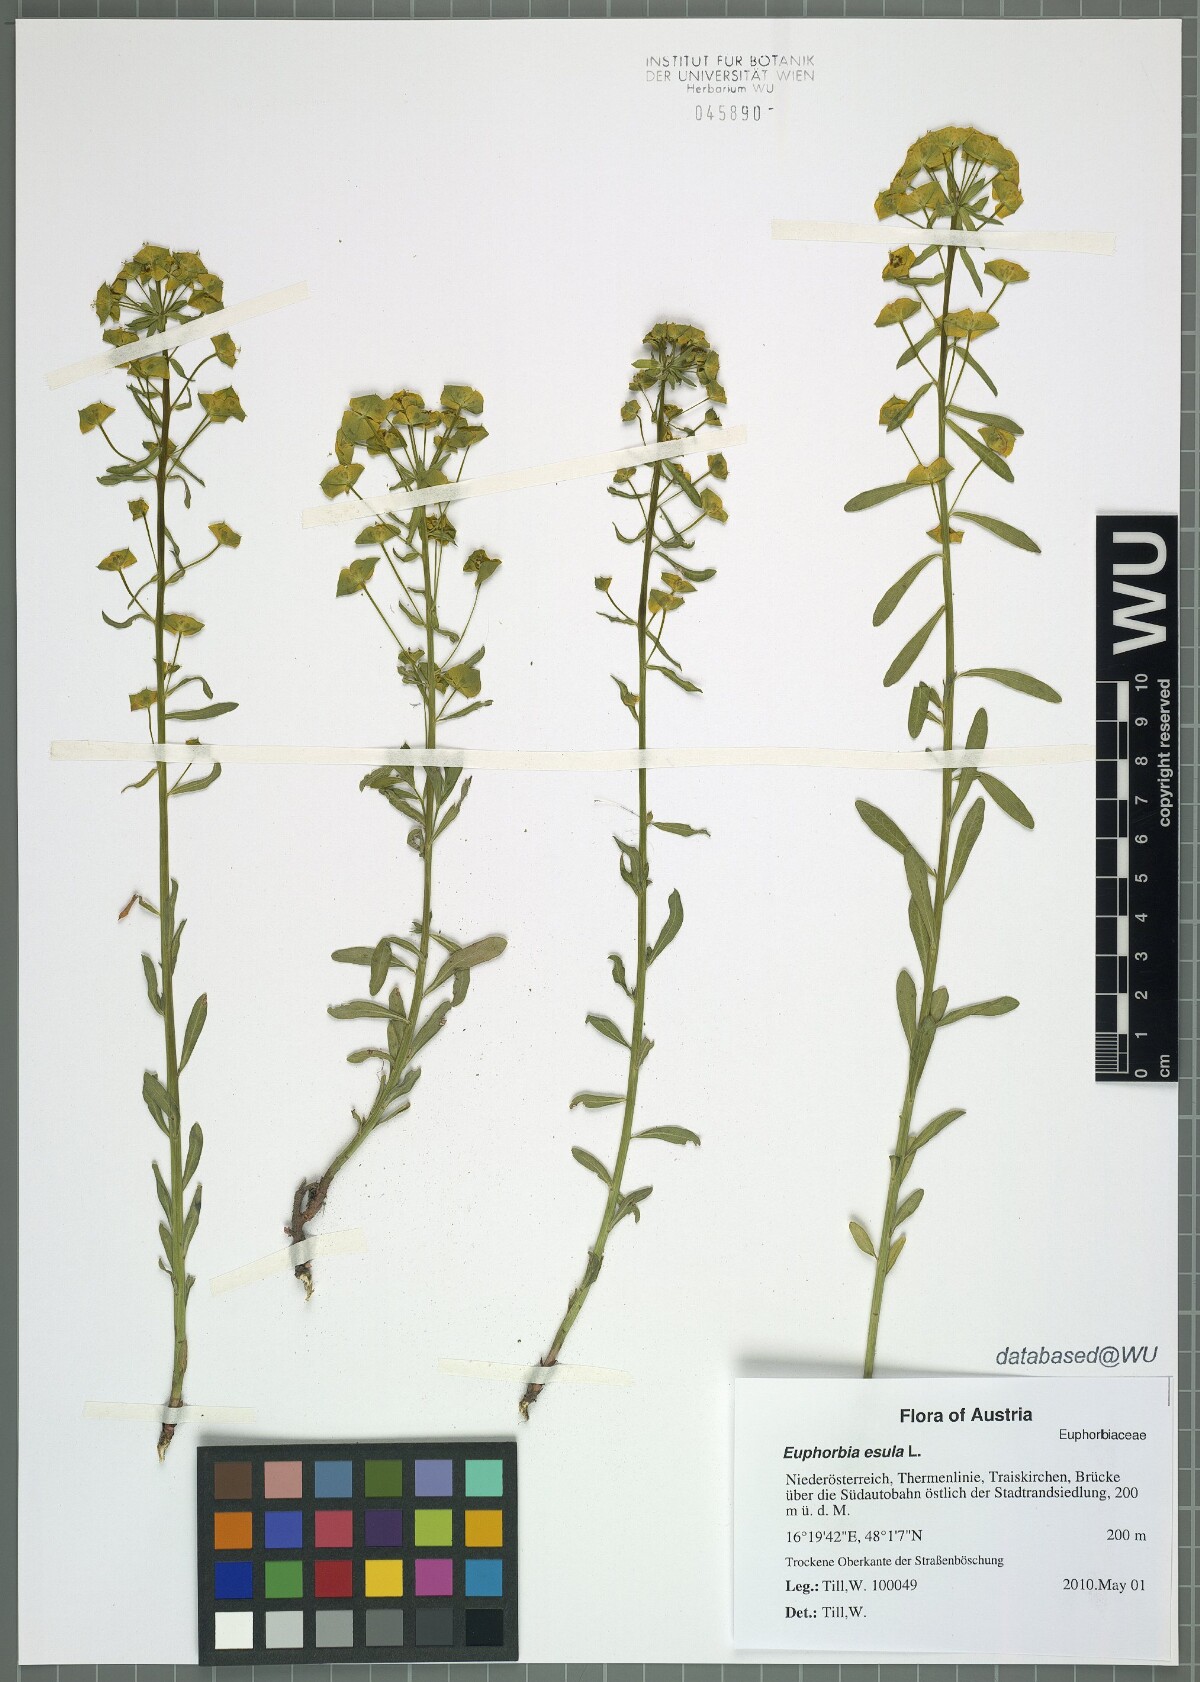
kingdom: Plantae
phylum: Tracheophyta
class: Magnoliopsida
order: Malpighiales
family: Euphorbiaceae
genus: Euphorbia
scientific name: Euphorbia esula
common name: Leafy spurge
